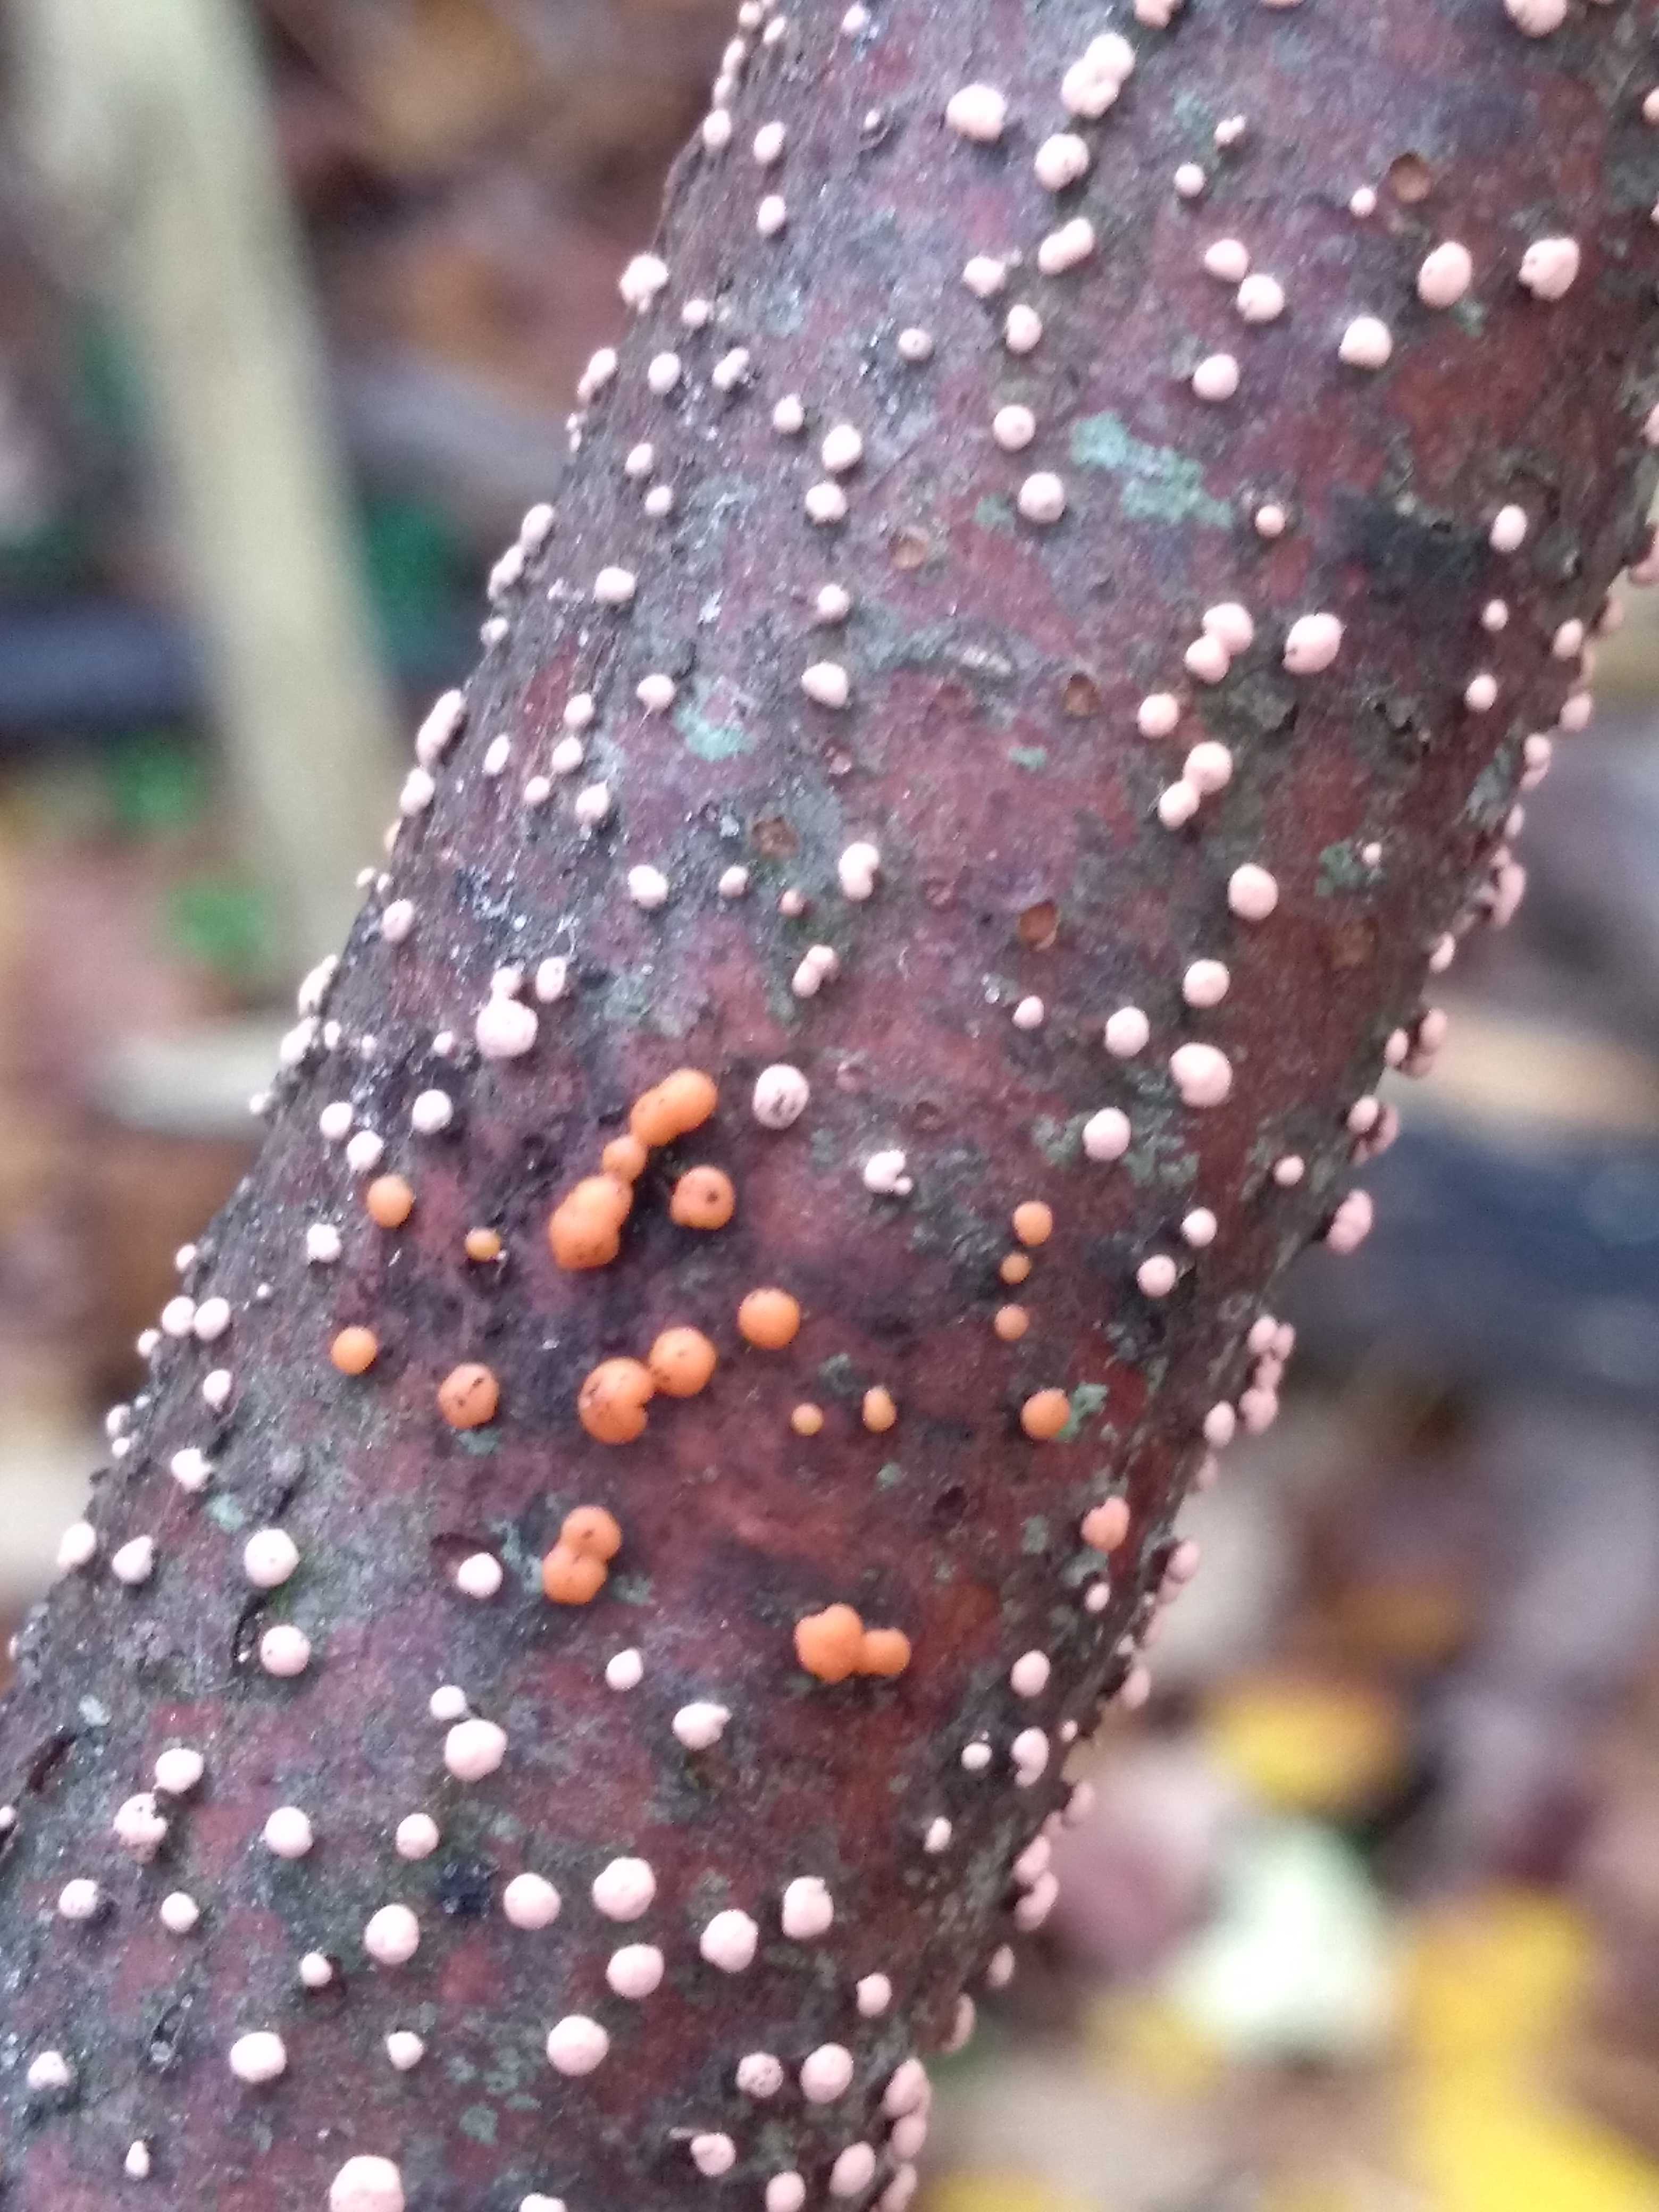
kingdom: Fungi
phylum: Ascomycota
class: Sordariomycetes
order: Hypocreales
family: Nectriaceae
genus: Nectria
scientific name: Nectria cinnabarina
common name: almindelig cinnobersvamp
